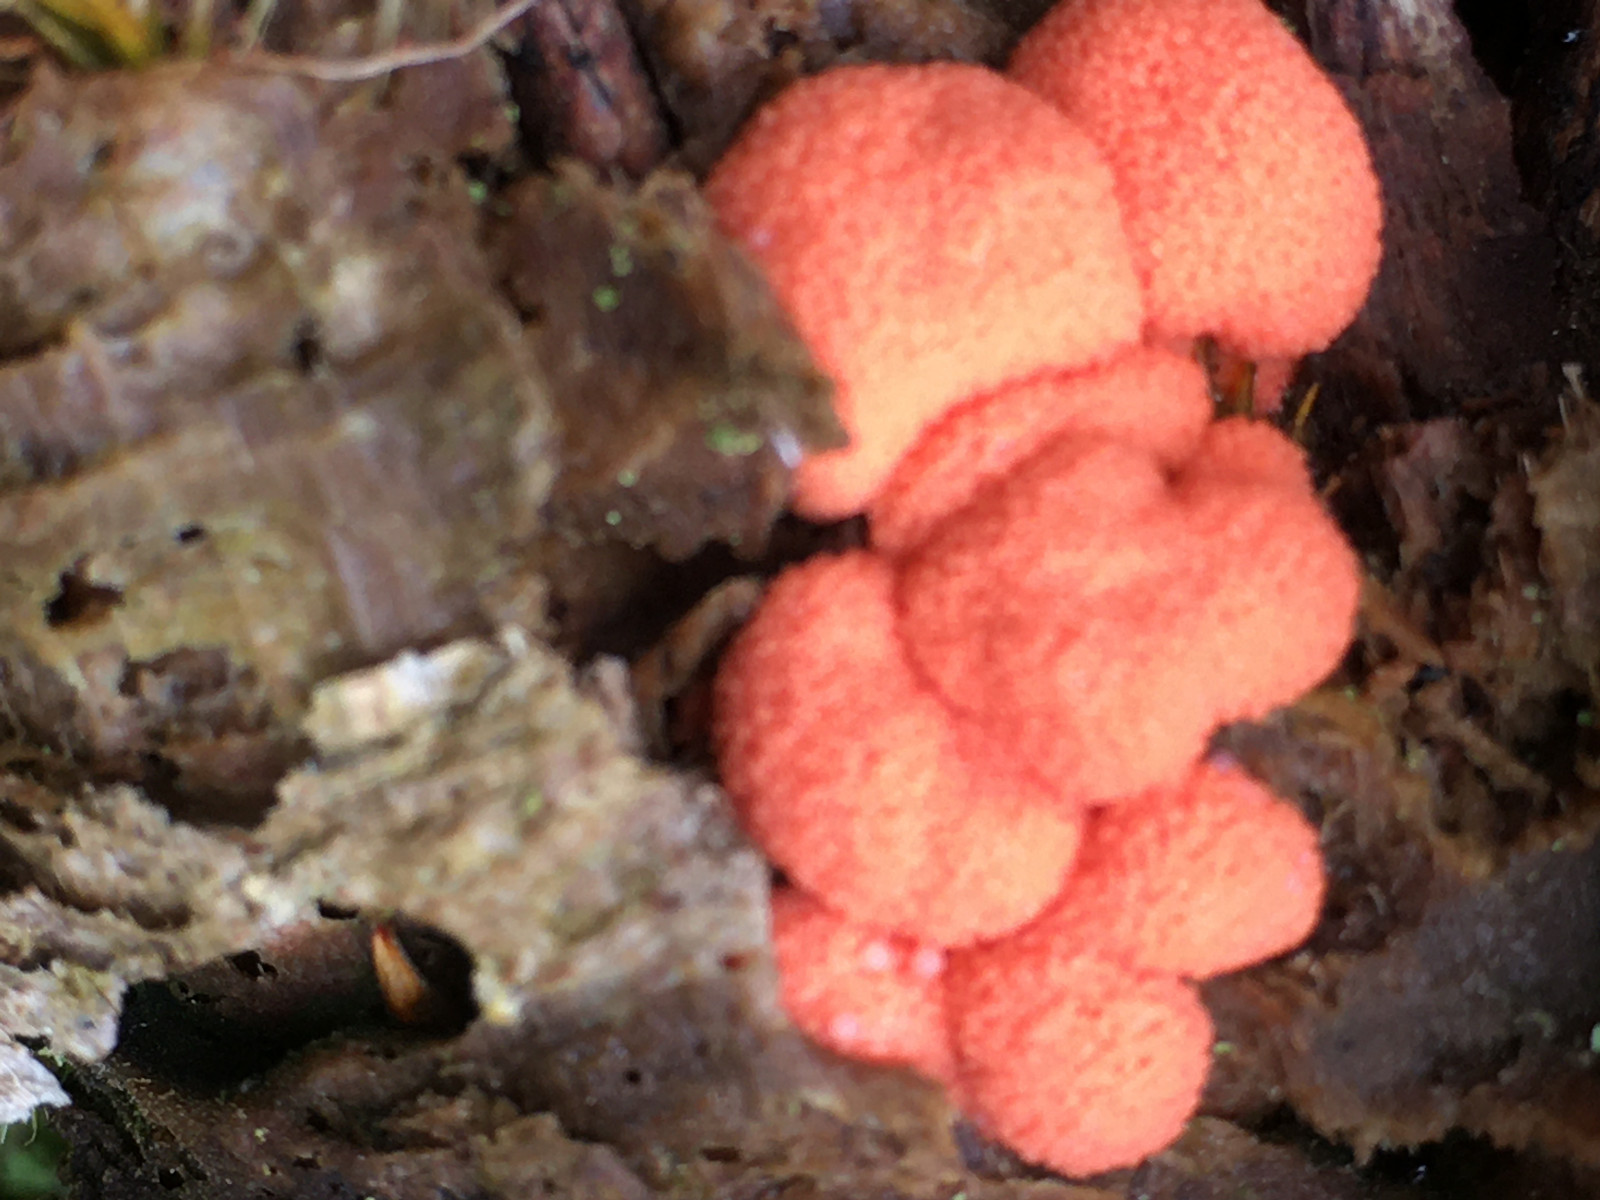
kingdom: Protozoa
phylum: Mycetozoa
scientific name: Mycetozoa
